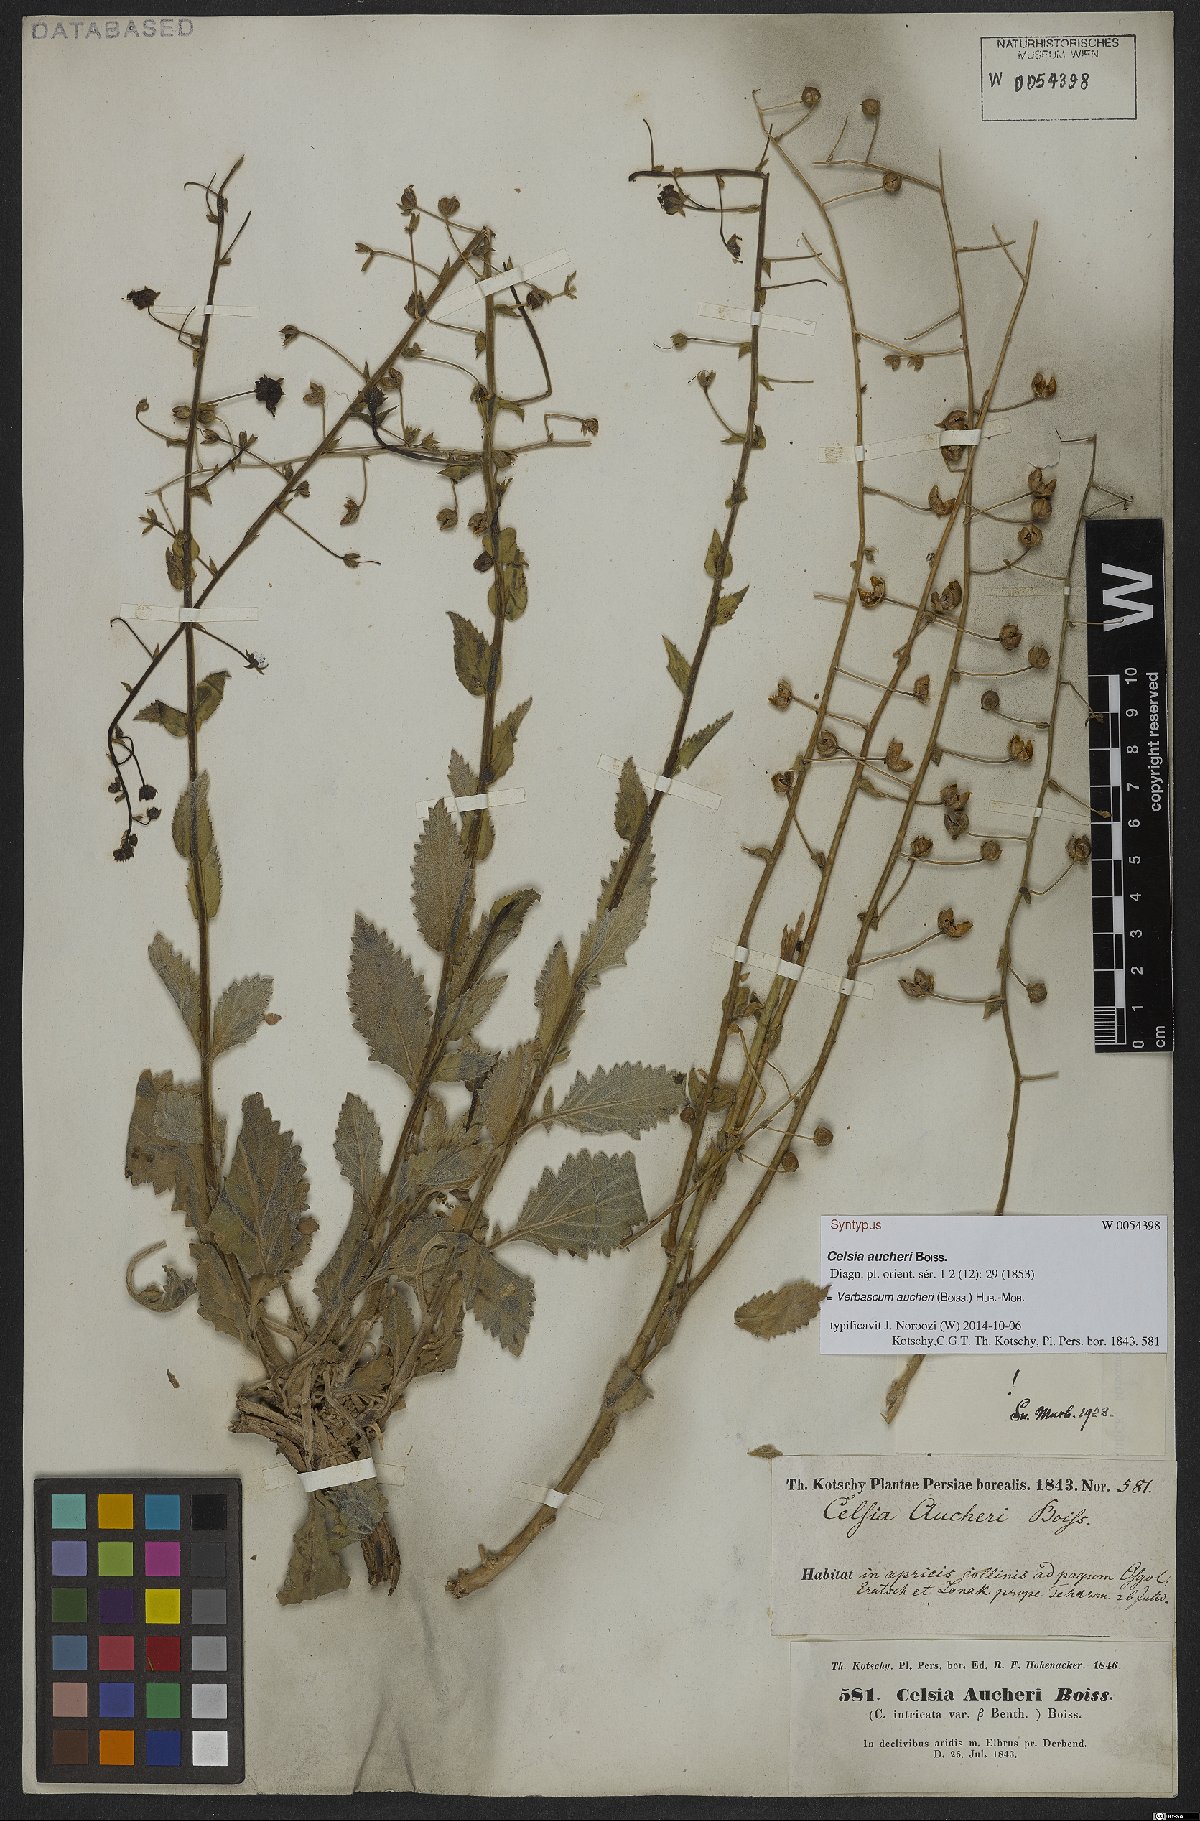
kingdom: Plantae
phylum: Tracheophyta
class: Magnoliopsida
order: Lamiales
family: Scrophulariaceae
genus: Verbascum
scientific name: Verbascum aucheri
